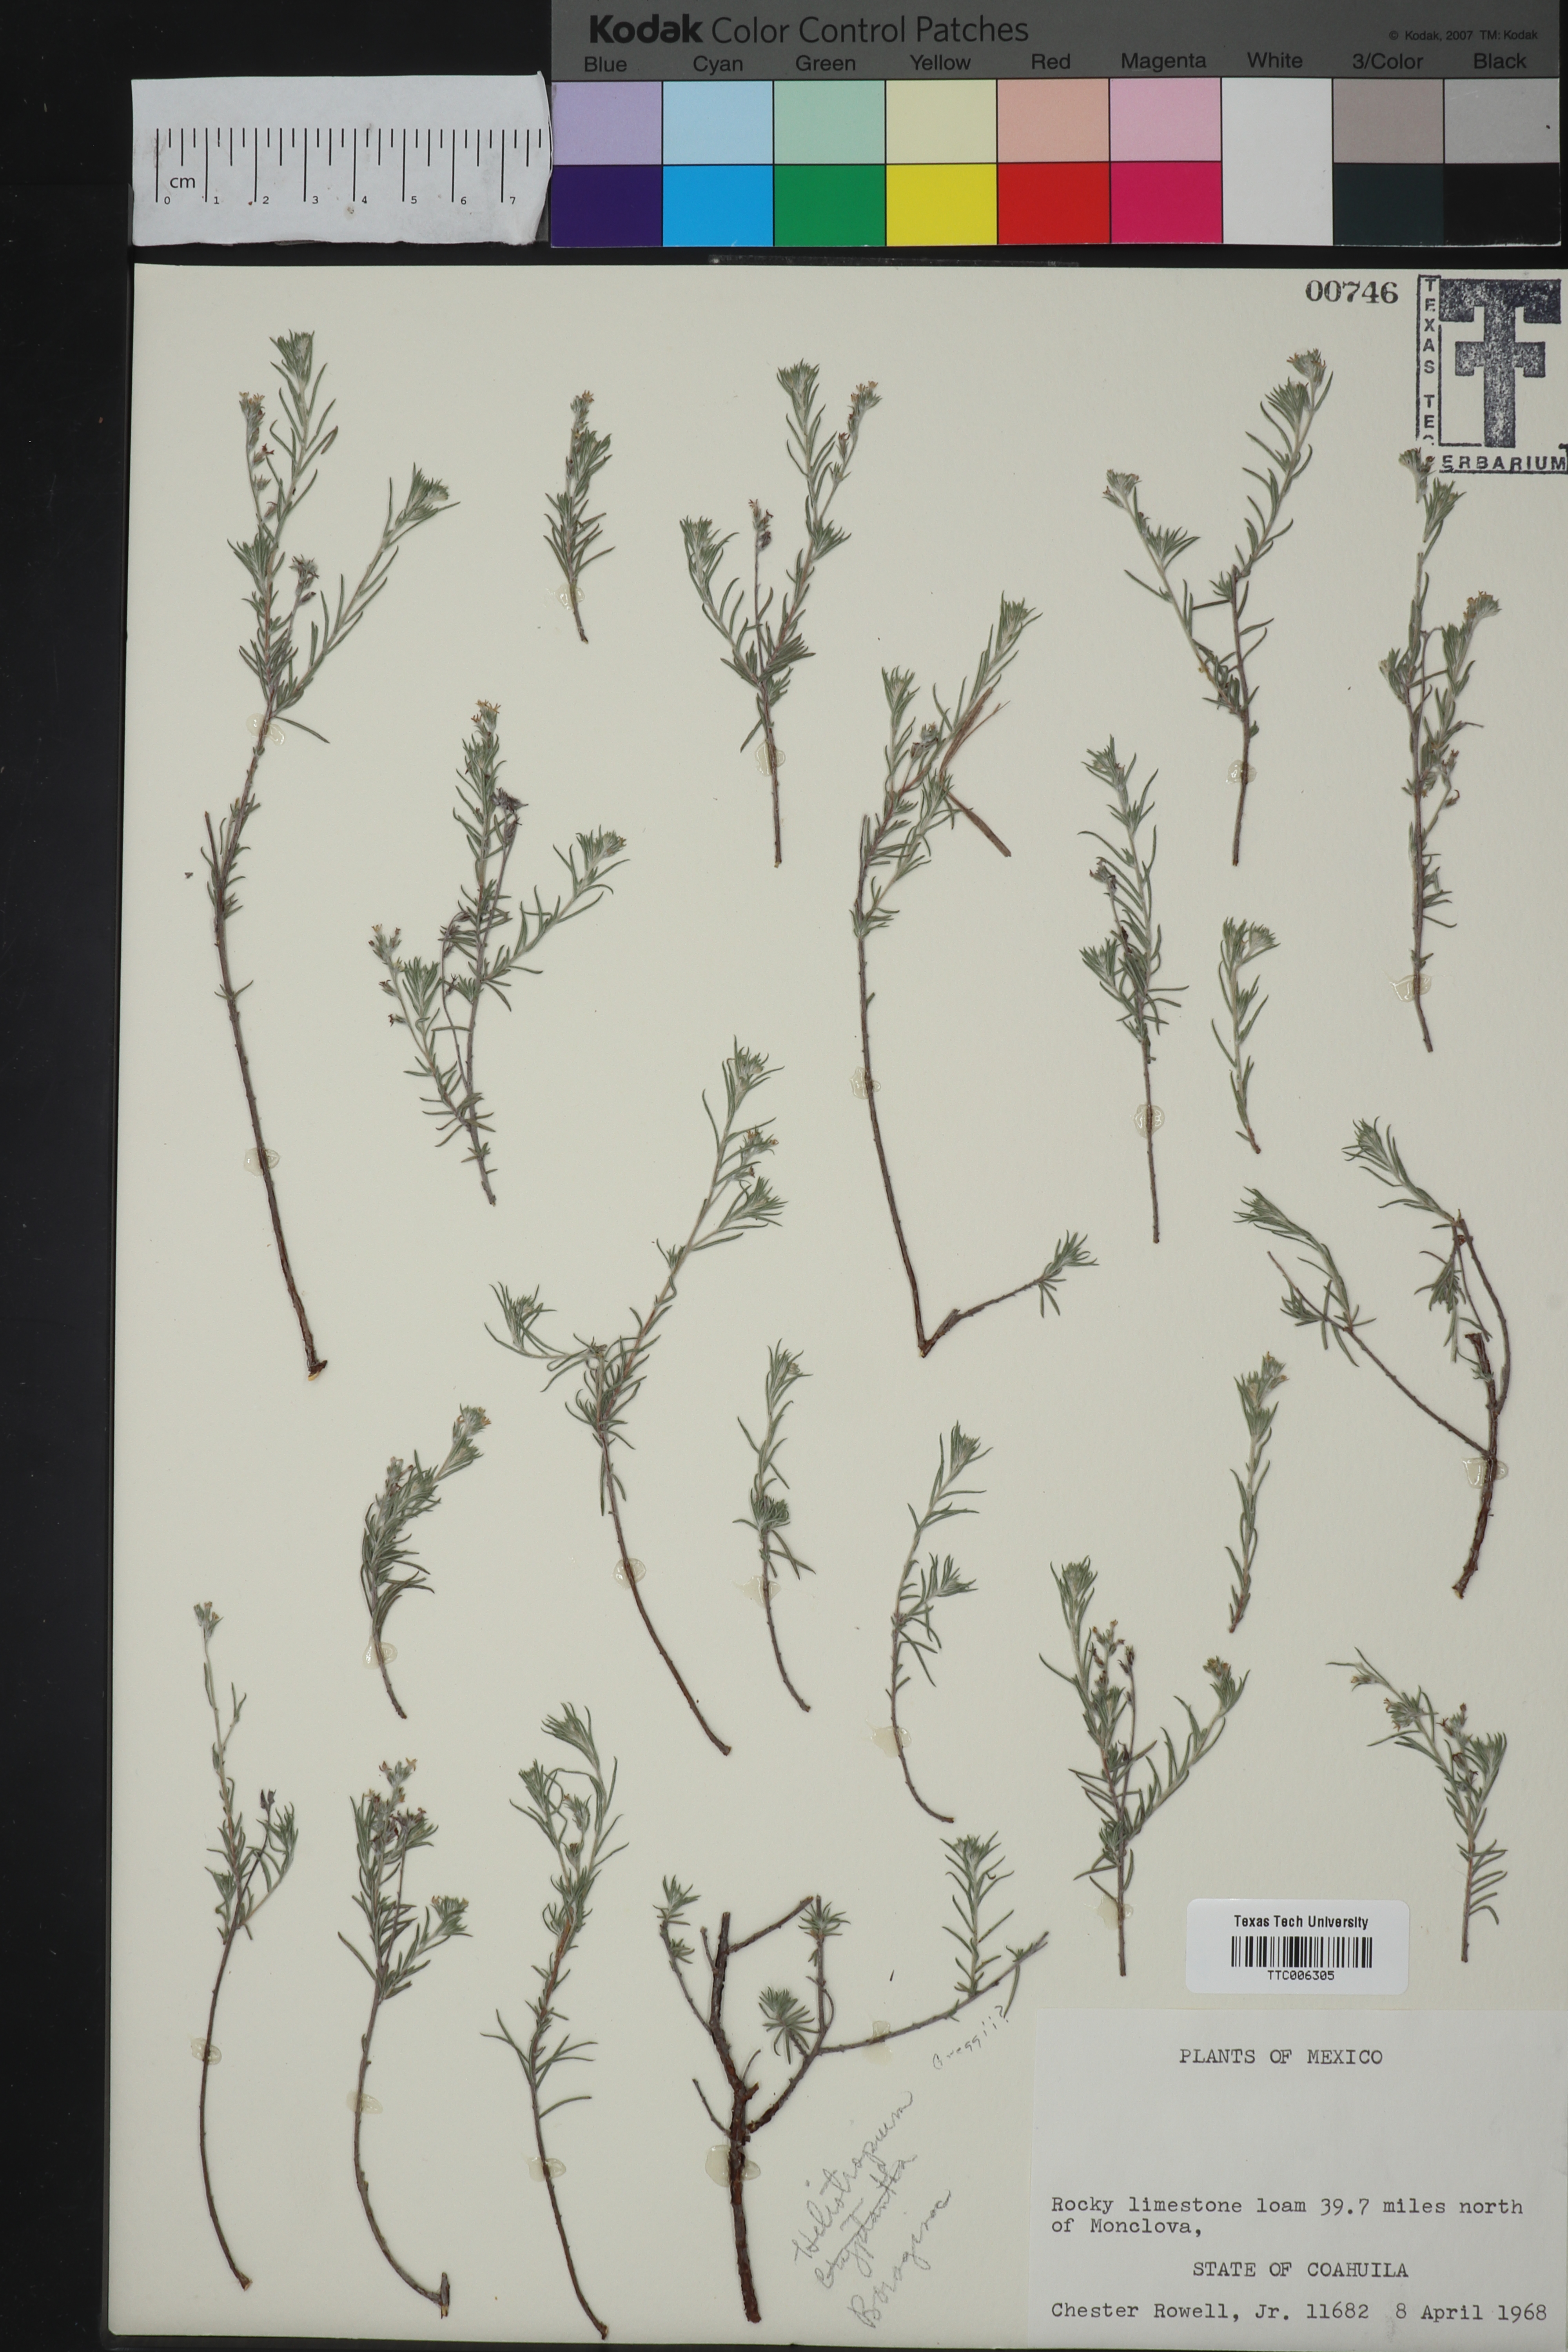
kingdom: Plantae
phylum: Tracheophyta
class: Magnoliopsida
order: Boraginales
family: Heliotropiaceae
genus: Euploca
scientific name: Euploca greggii
